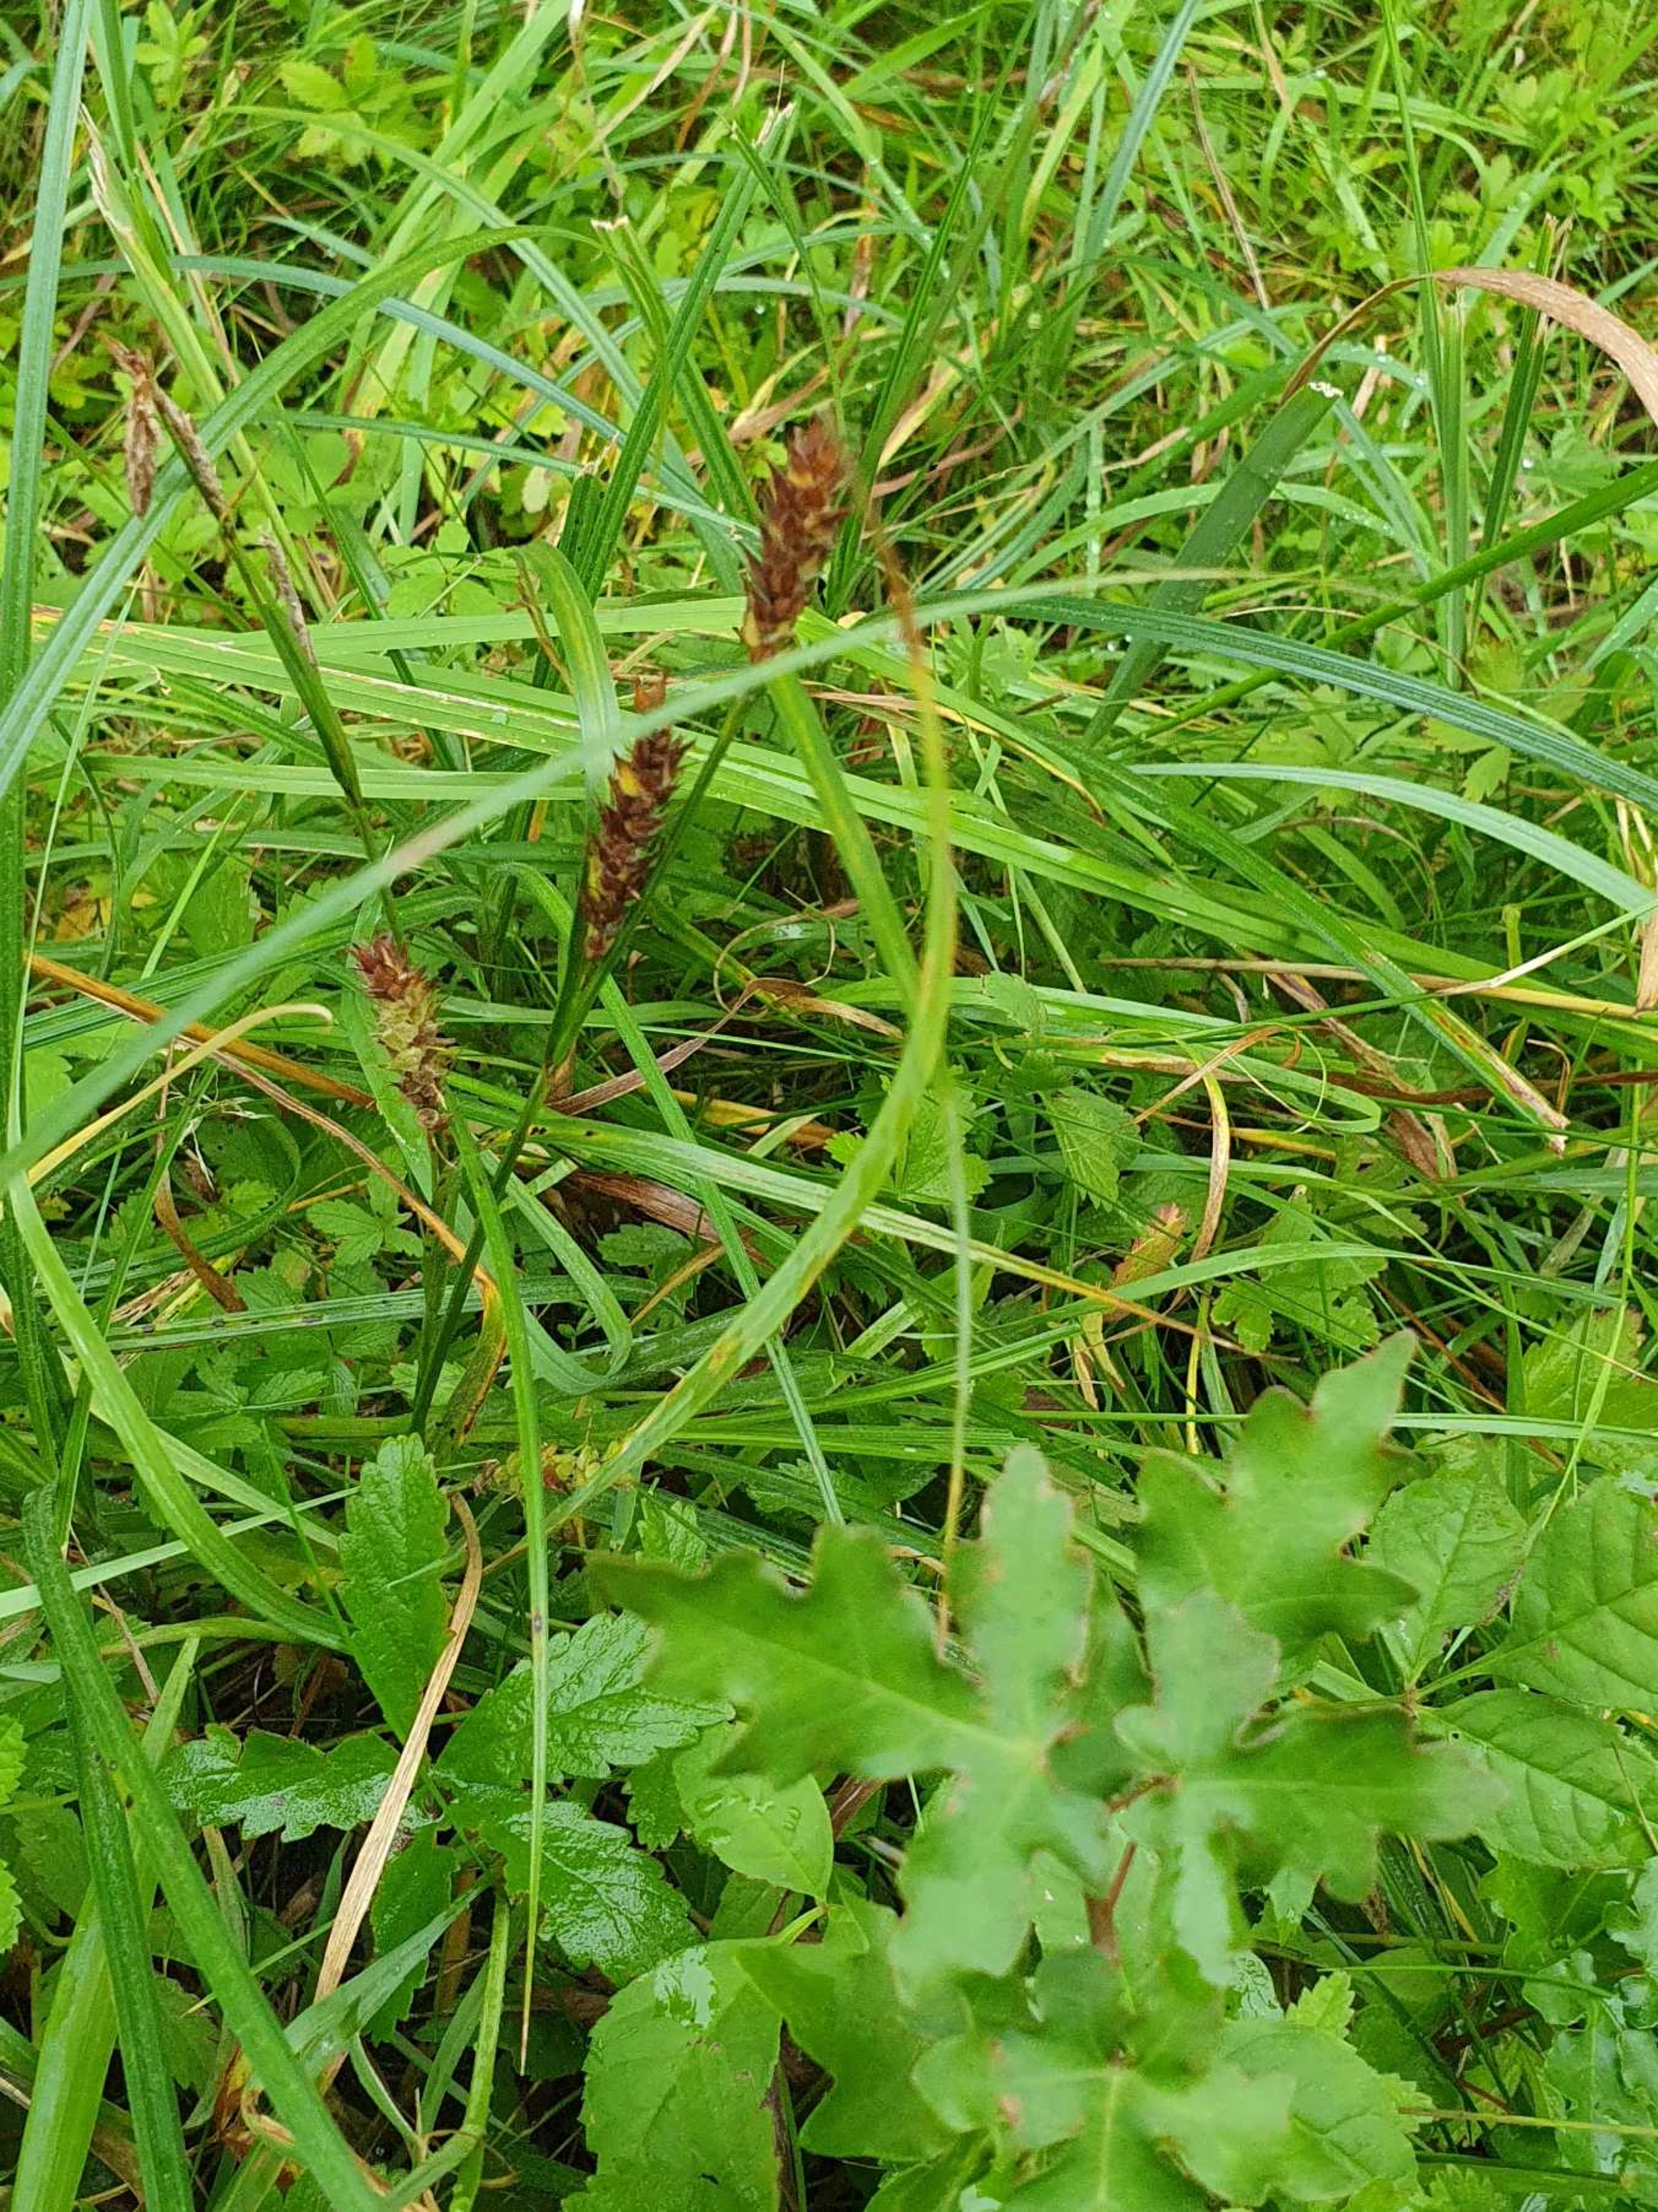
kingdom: Plantae
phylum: Tracheophyta
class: Liliopsida
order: Poales
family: Cyperaceae
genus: Carex
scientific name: Carex hirta
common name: Håret star
